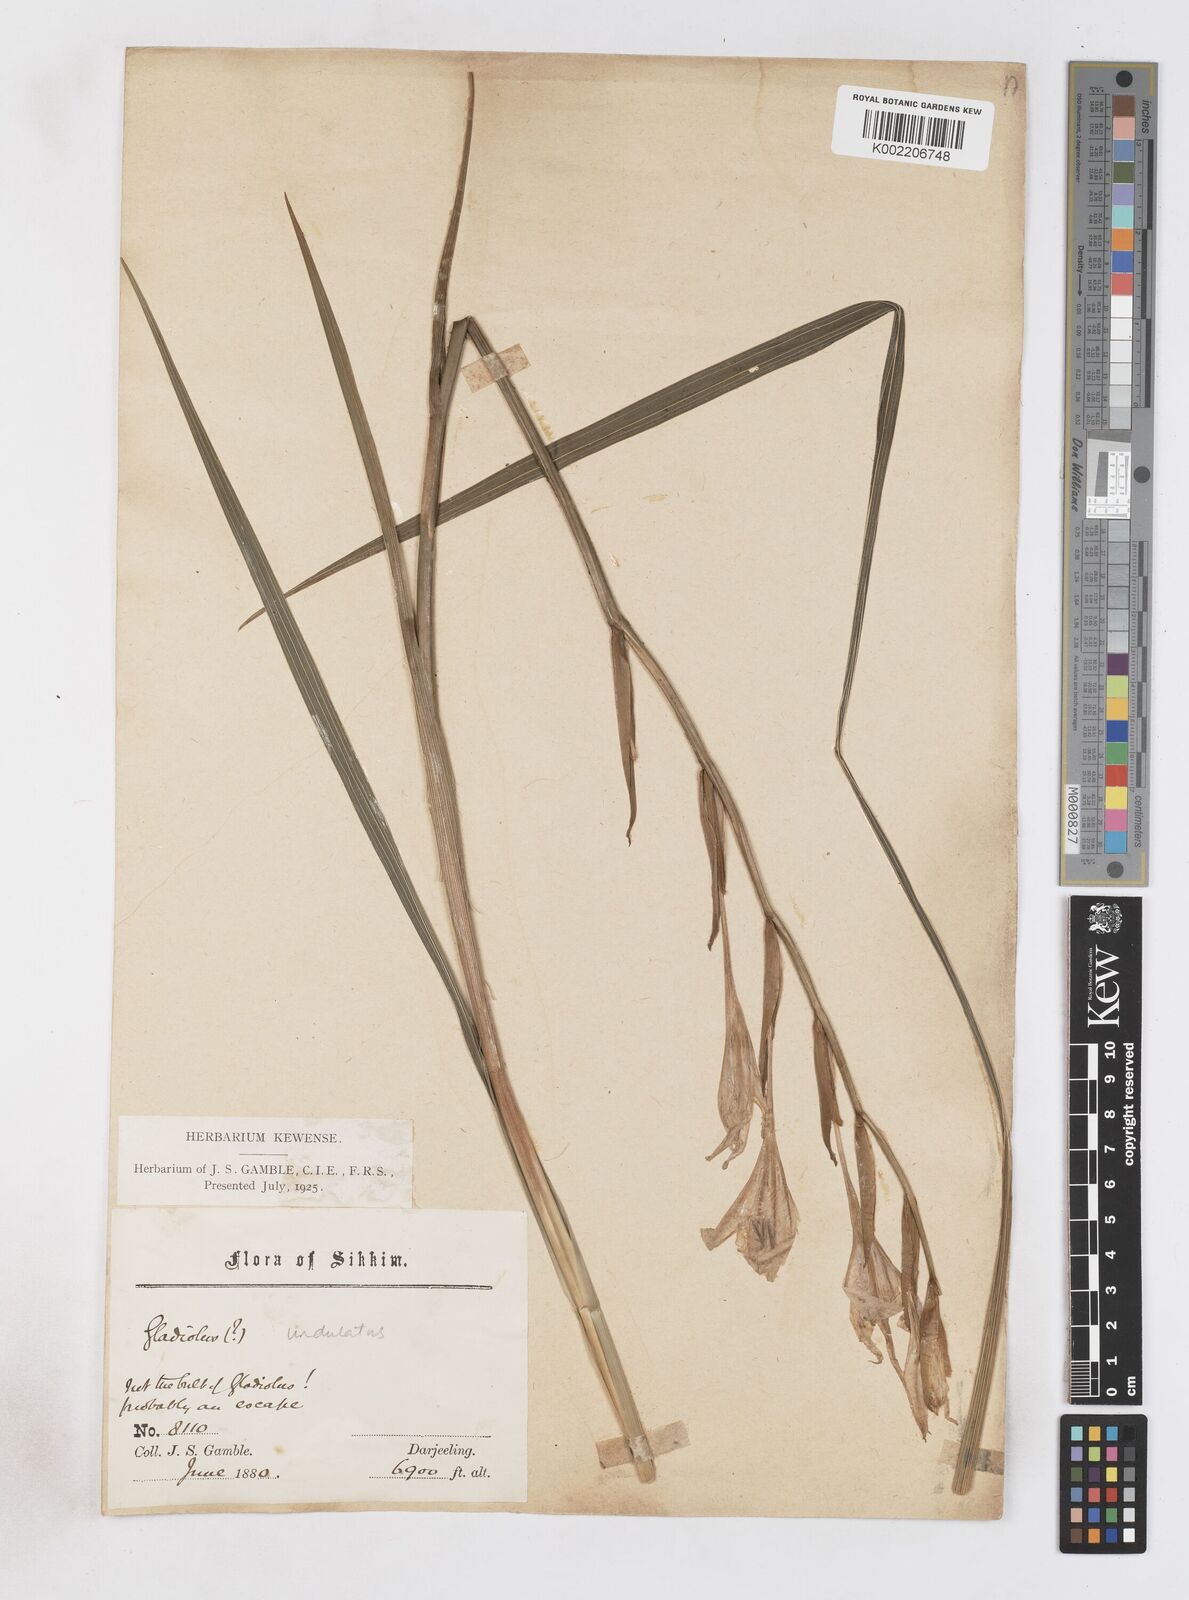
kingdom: Plantae
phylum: Tracheophyta
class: Liliopsida
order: Asparagales
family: Iridaceae
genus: Gladiolus
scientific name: Gladiolus undulatus
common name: Large painted-lady
